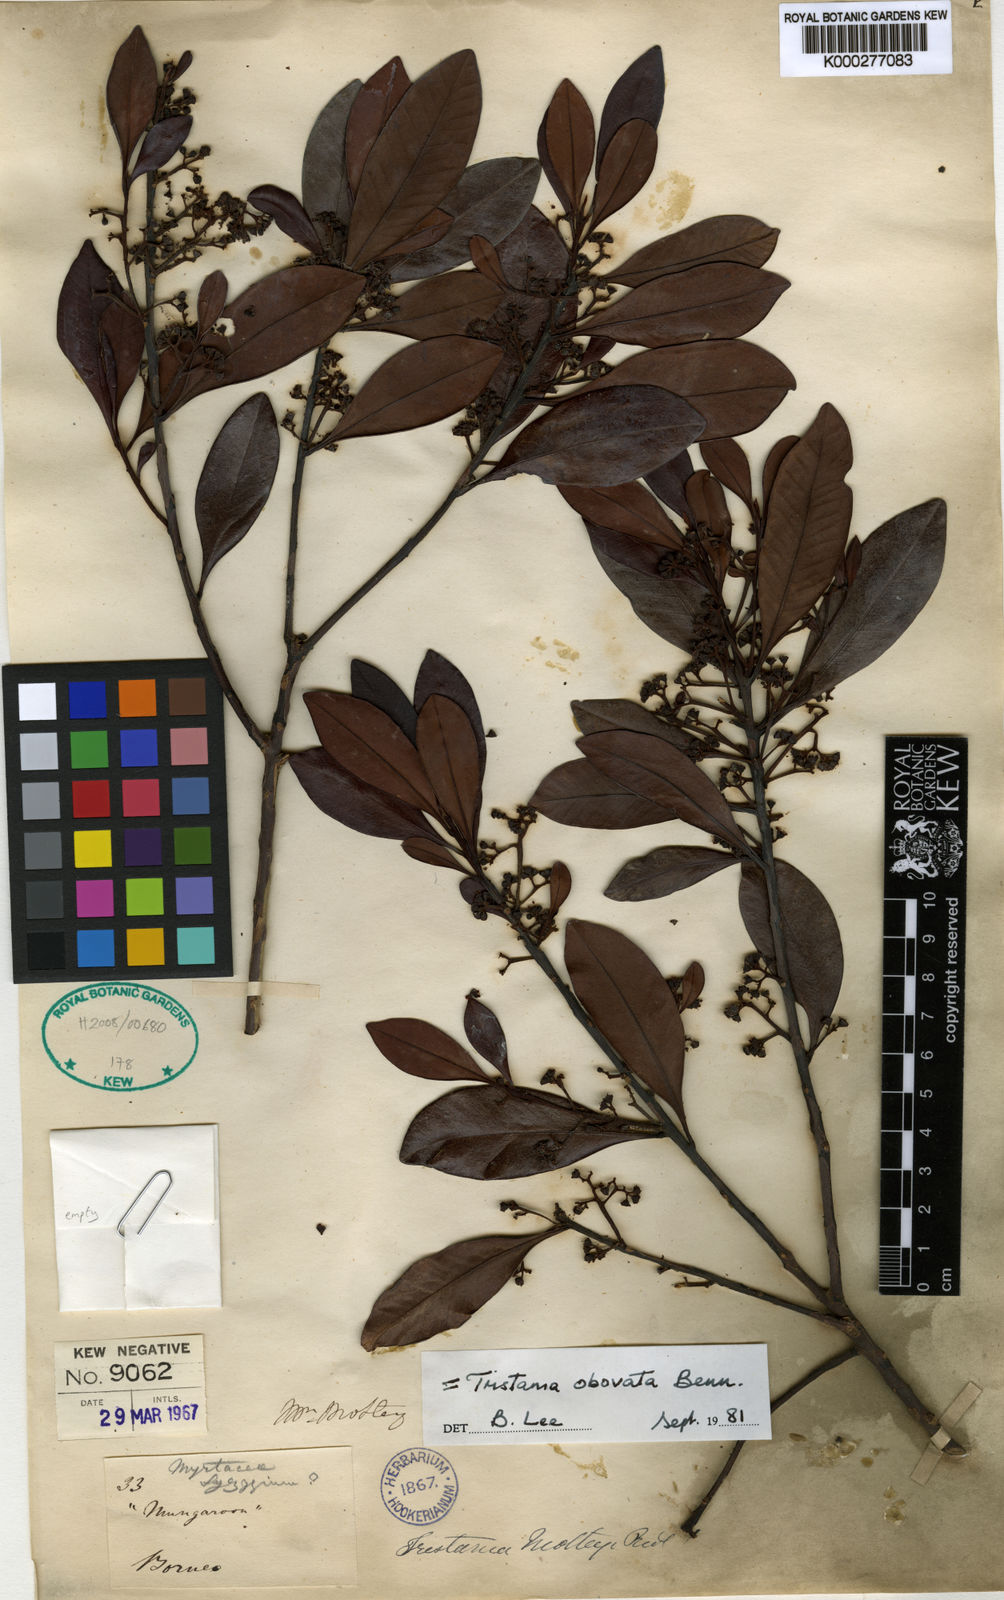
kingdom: Plantae
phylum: Tracheophyta
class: Magnoliopsida
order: Myrtales
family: Myrtaceae
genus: Tristaniopsis
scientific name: Tristaniopsis whiteana
